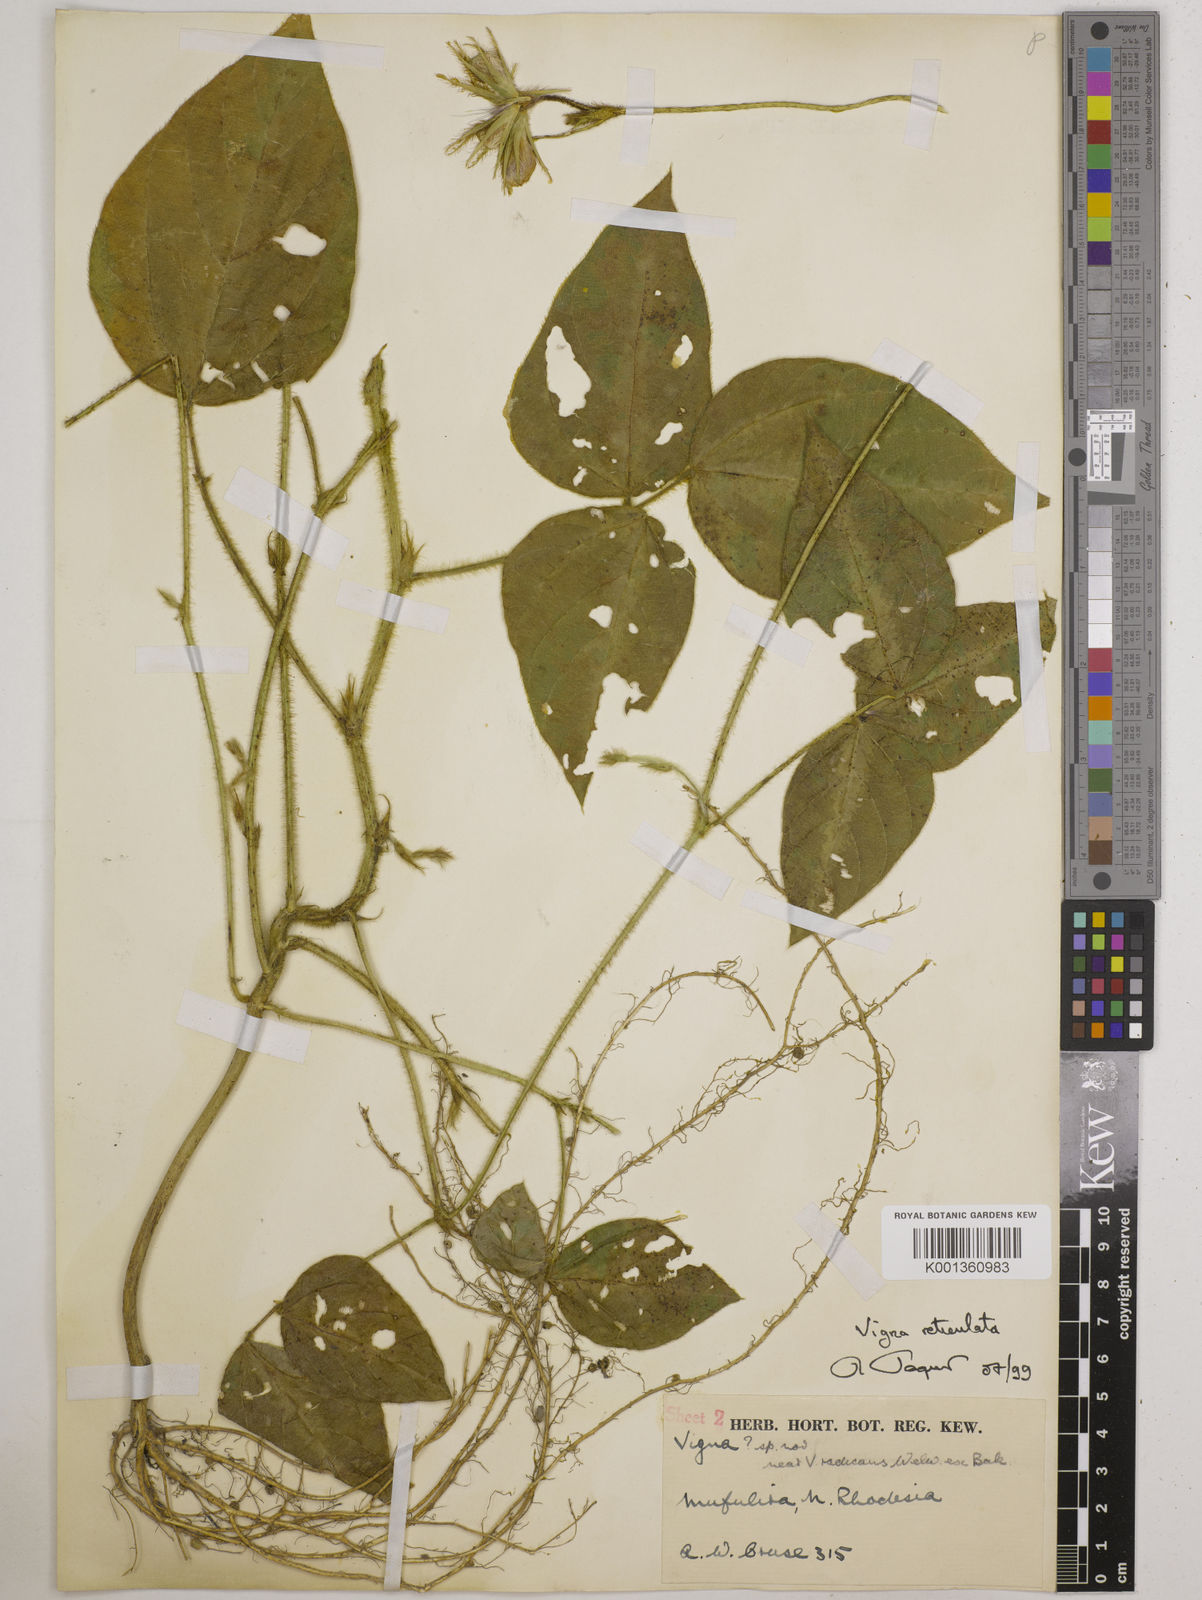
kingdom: Plantae
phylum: Tracheophyta
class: Magnoliopsida
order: Fabales
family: Fabaceae
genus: Vigna
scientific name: Vigna reticulata
